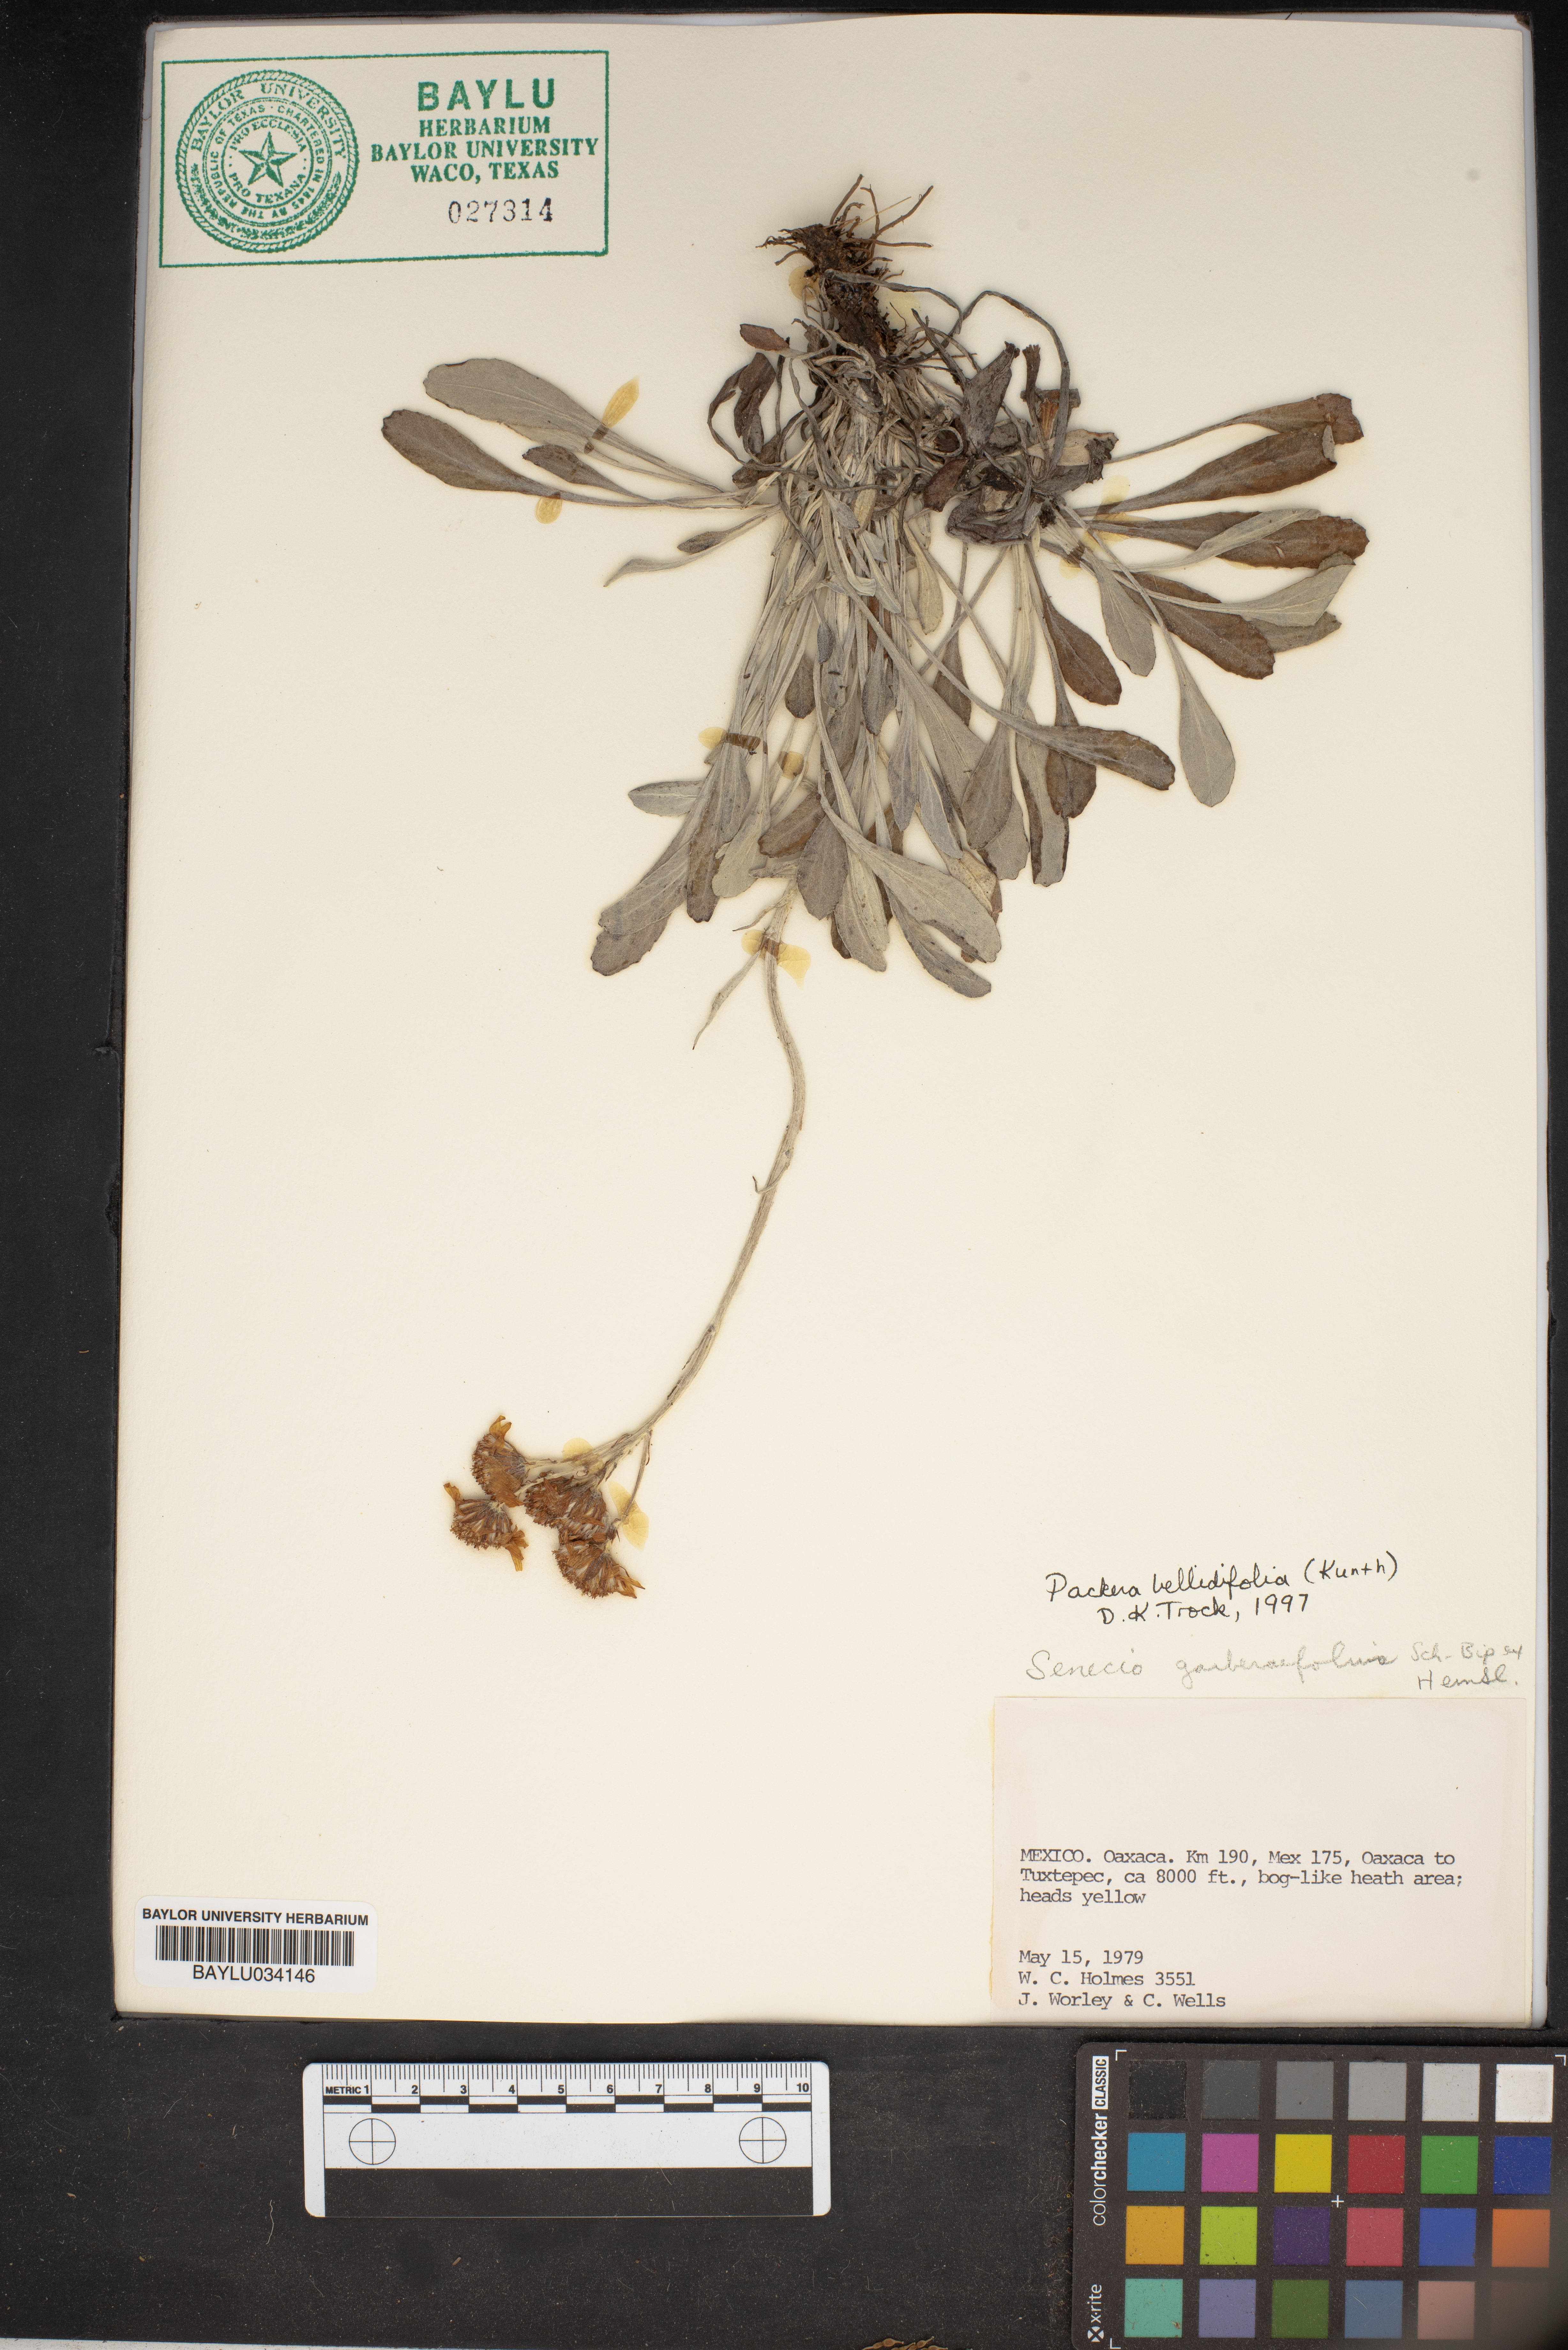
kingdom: Plantae
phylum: Tracheophyta
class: Magnoliopsida
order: Asterales
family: Asteraceae
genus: Packera
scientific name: Packera bellidifolia
